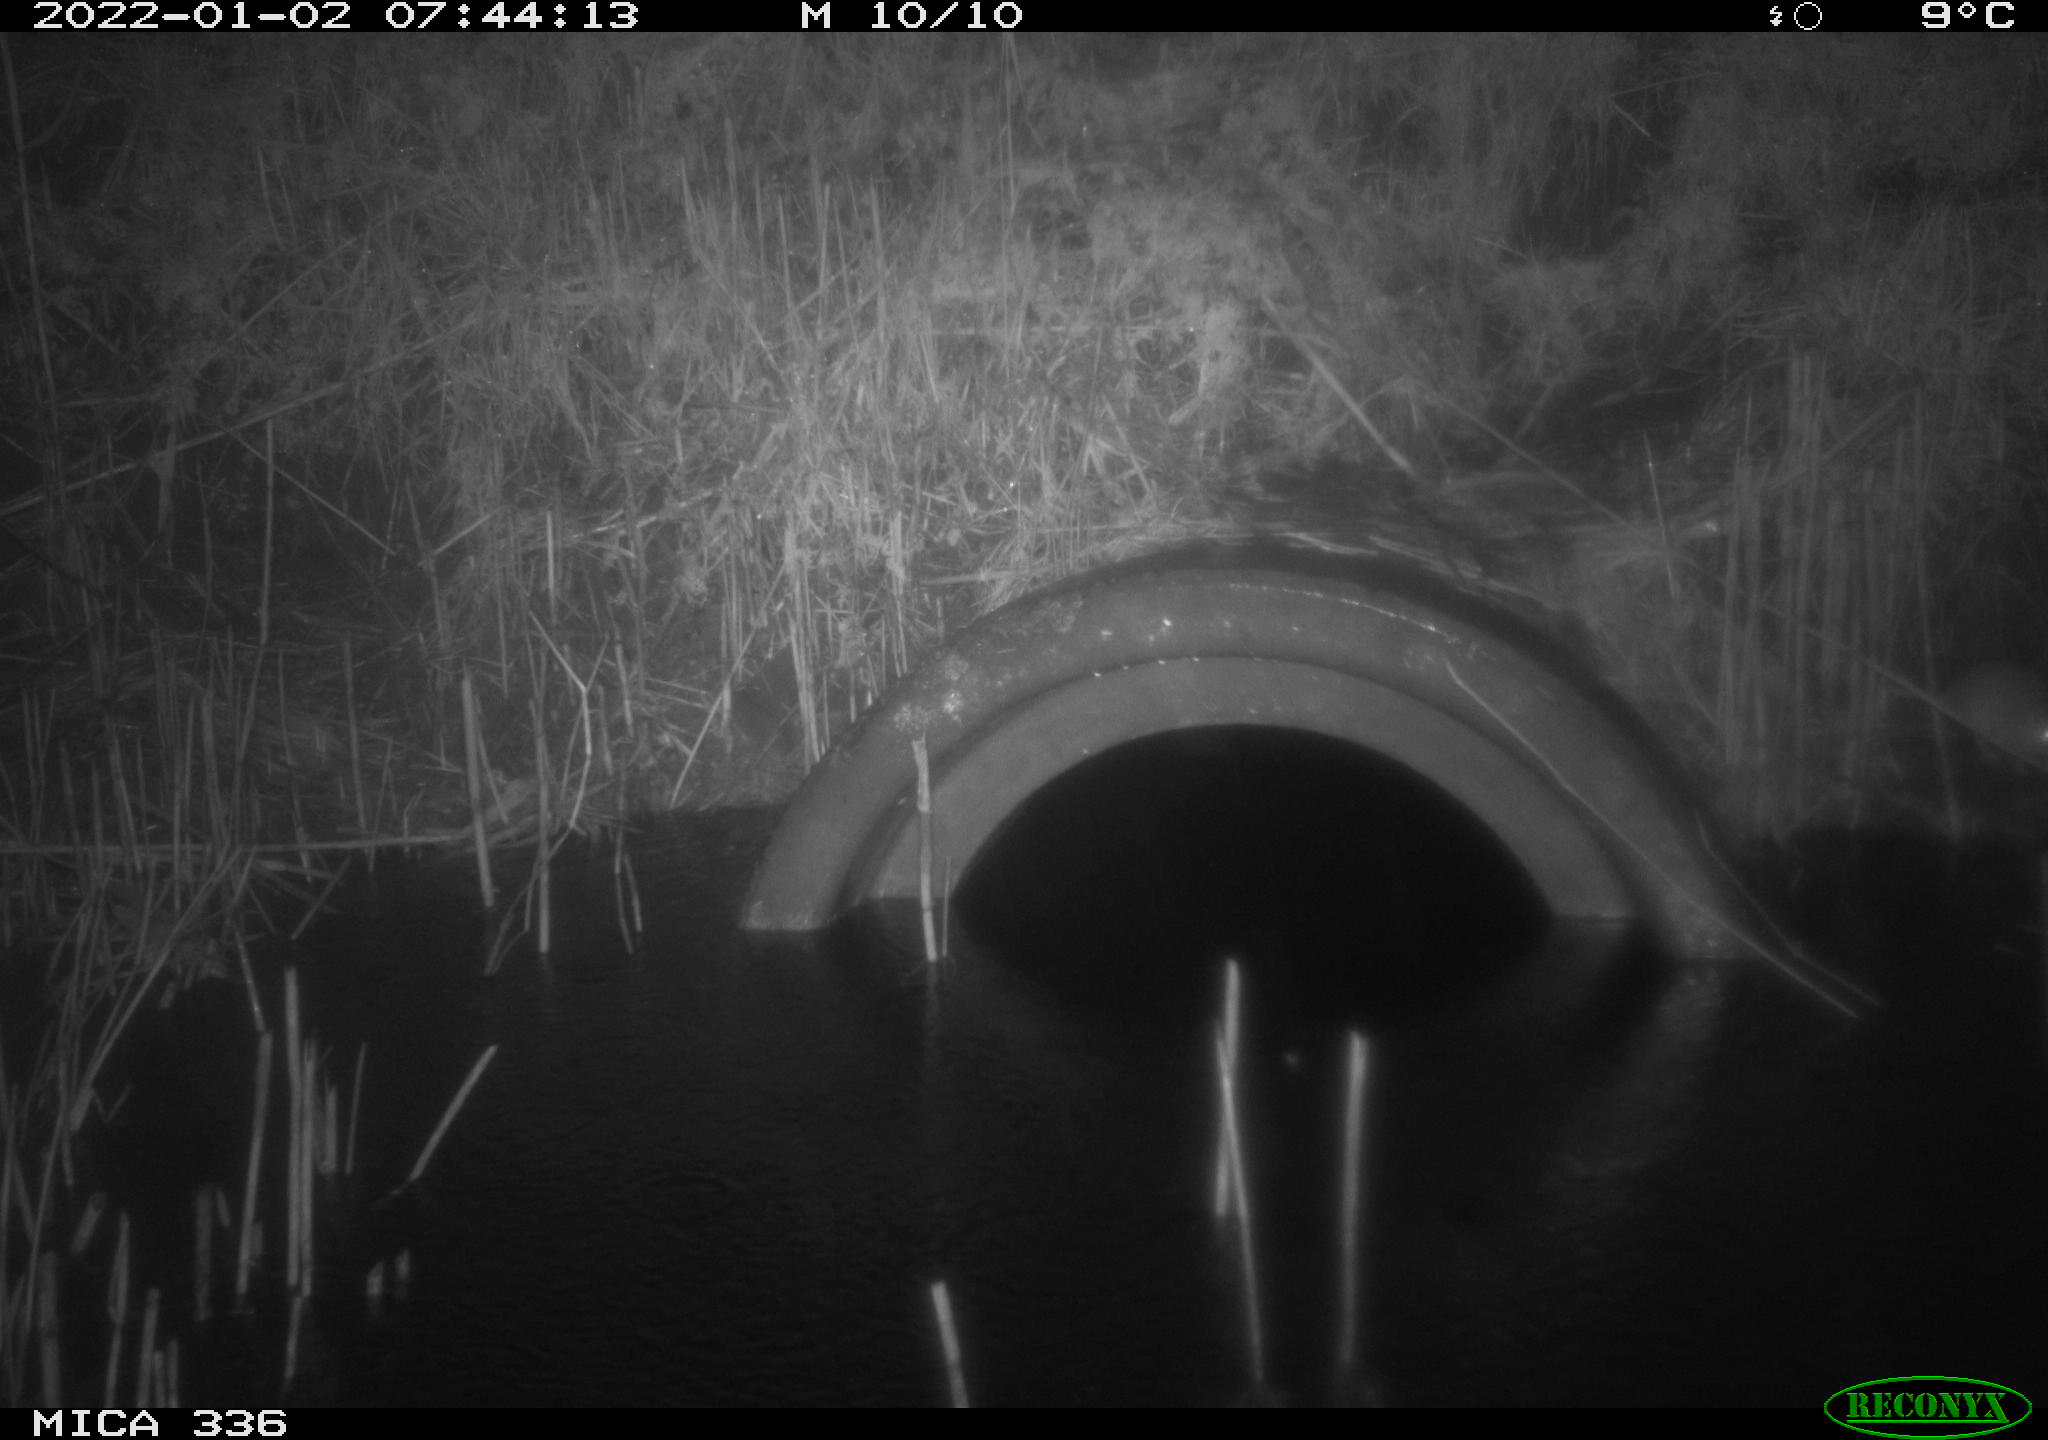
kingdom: Animalia
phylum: Chordata
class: Mammalia
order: Rodentia
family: Muridae
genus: Rattus
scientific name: Rattus norvegicus
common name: Brown rat
